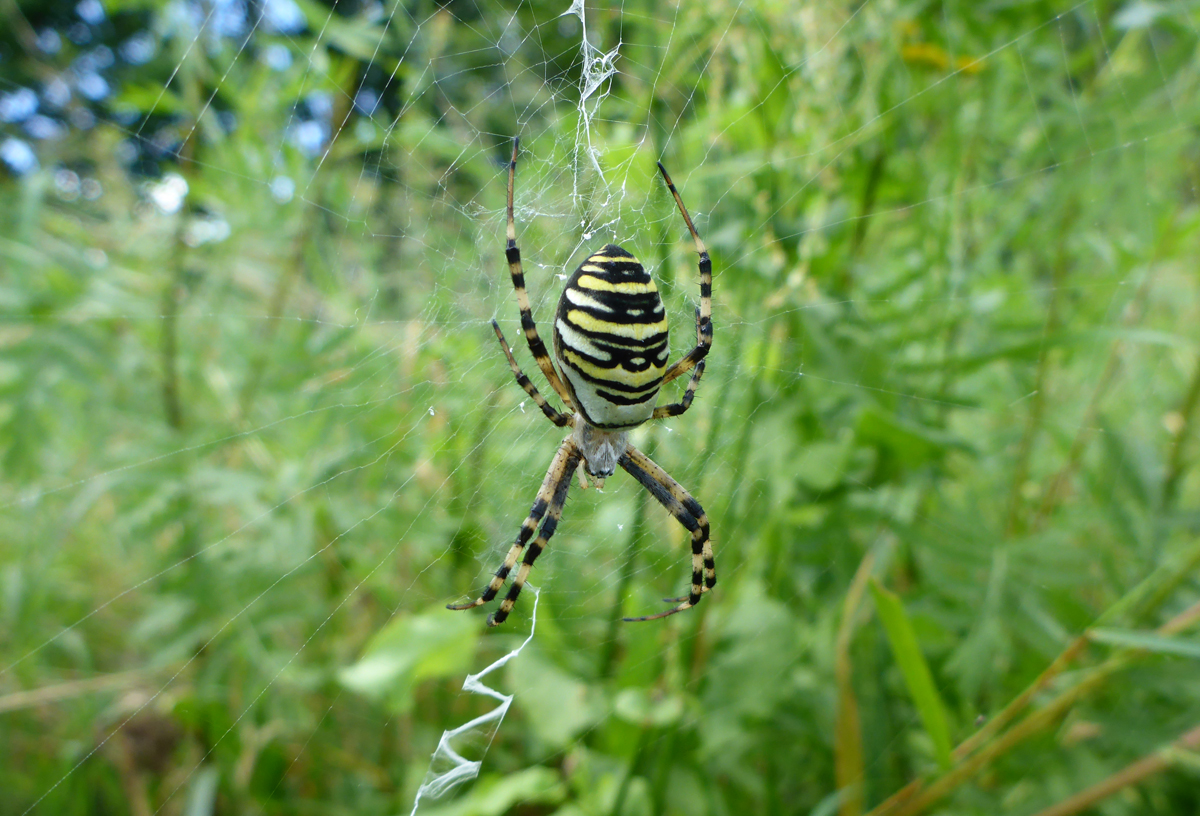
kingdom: Animalia
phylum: Arthropoda
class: Arachnida
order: Araneae
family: Araneidae
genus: Argiope
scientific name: Argiope bruennichi
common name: Wasp spider
